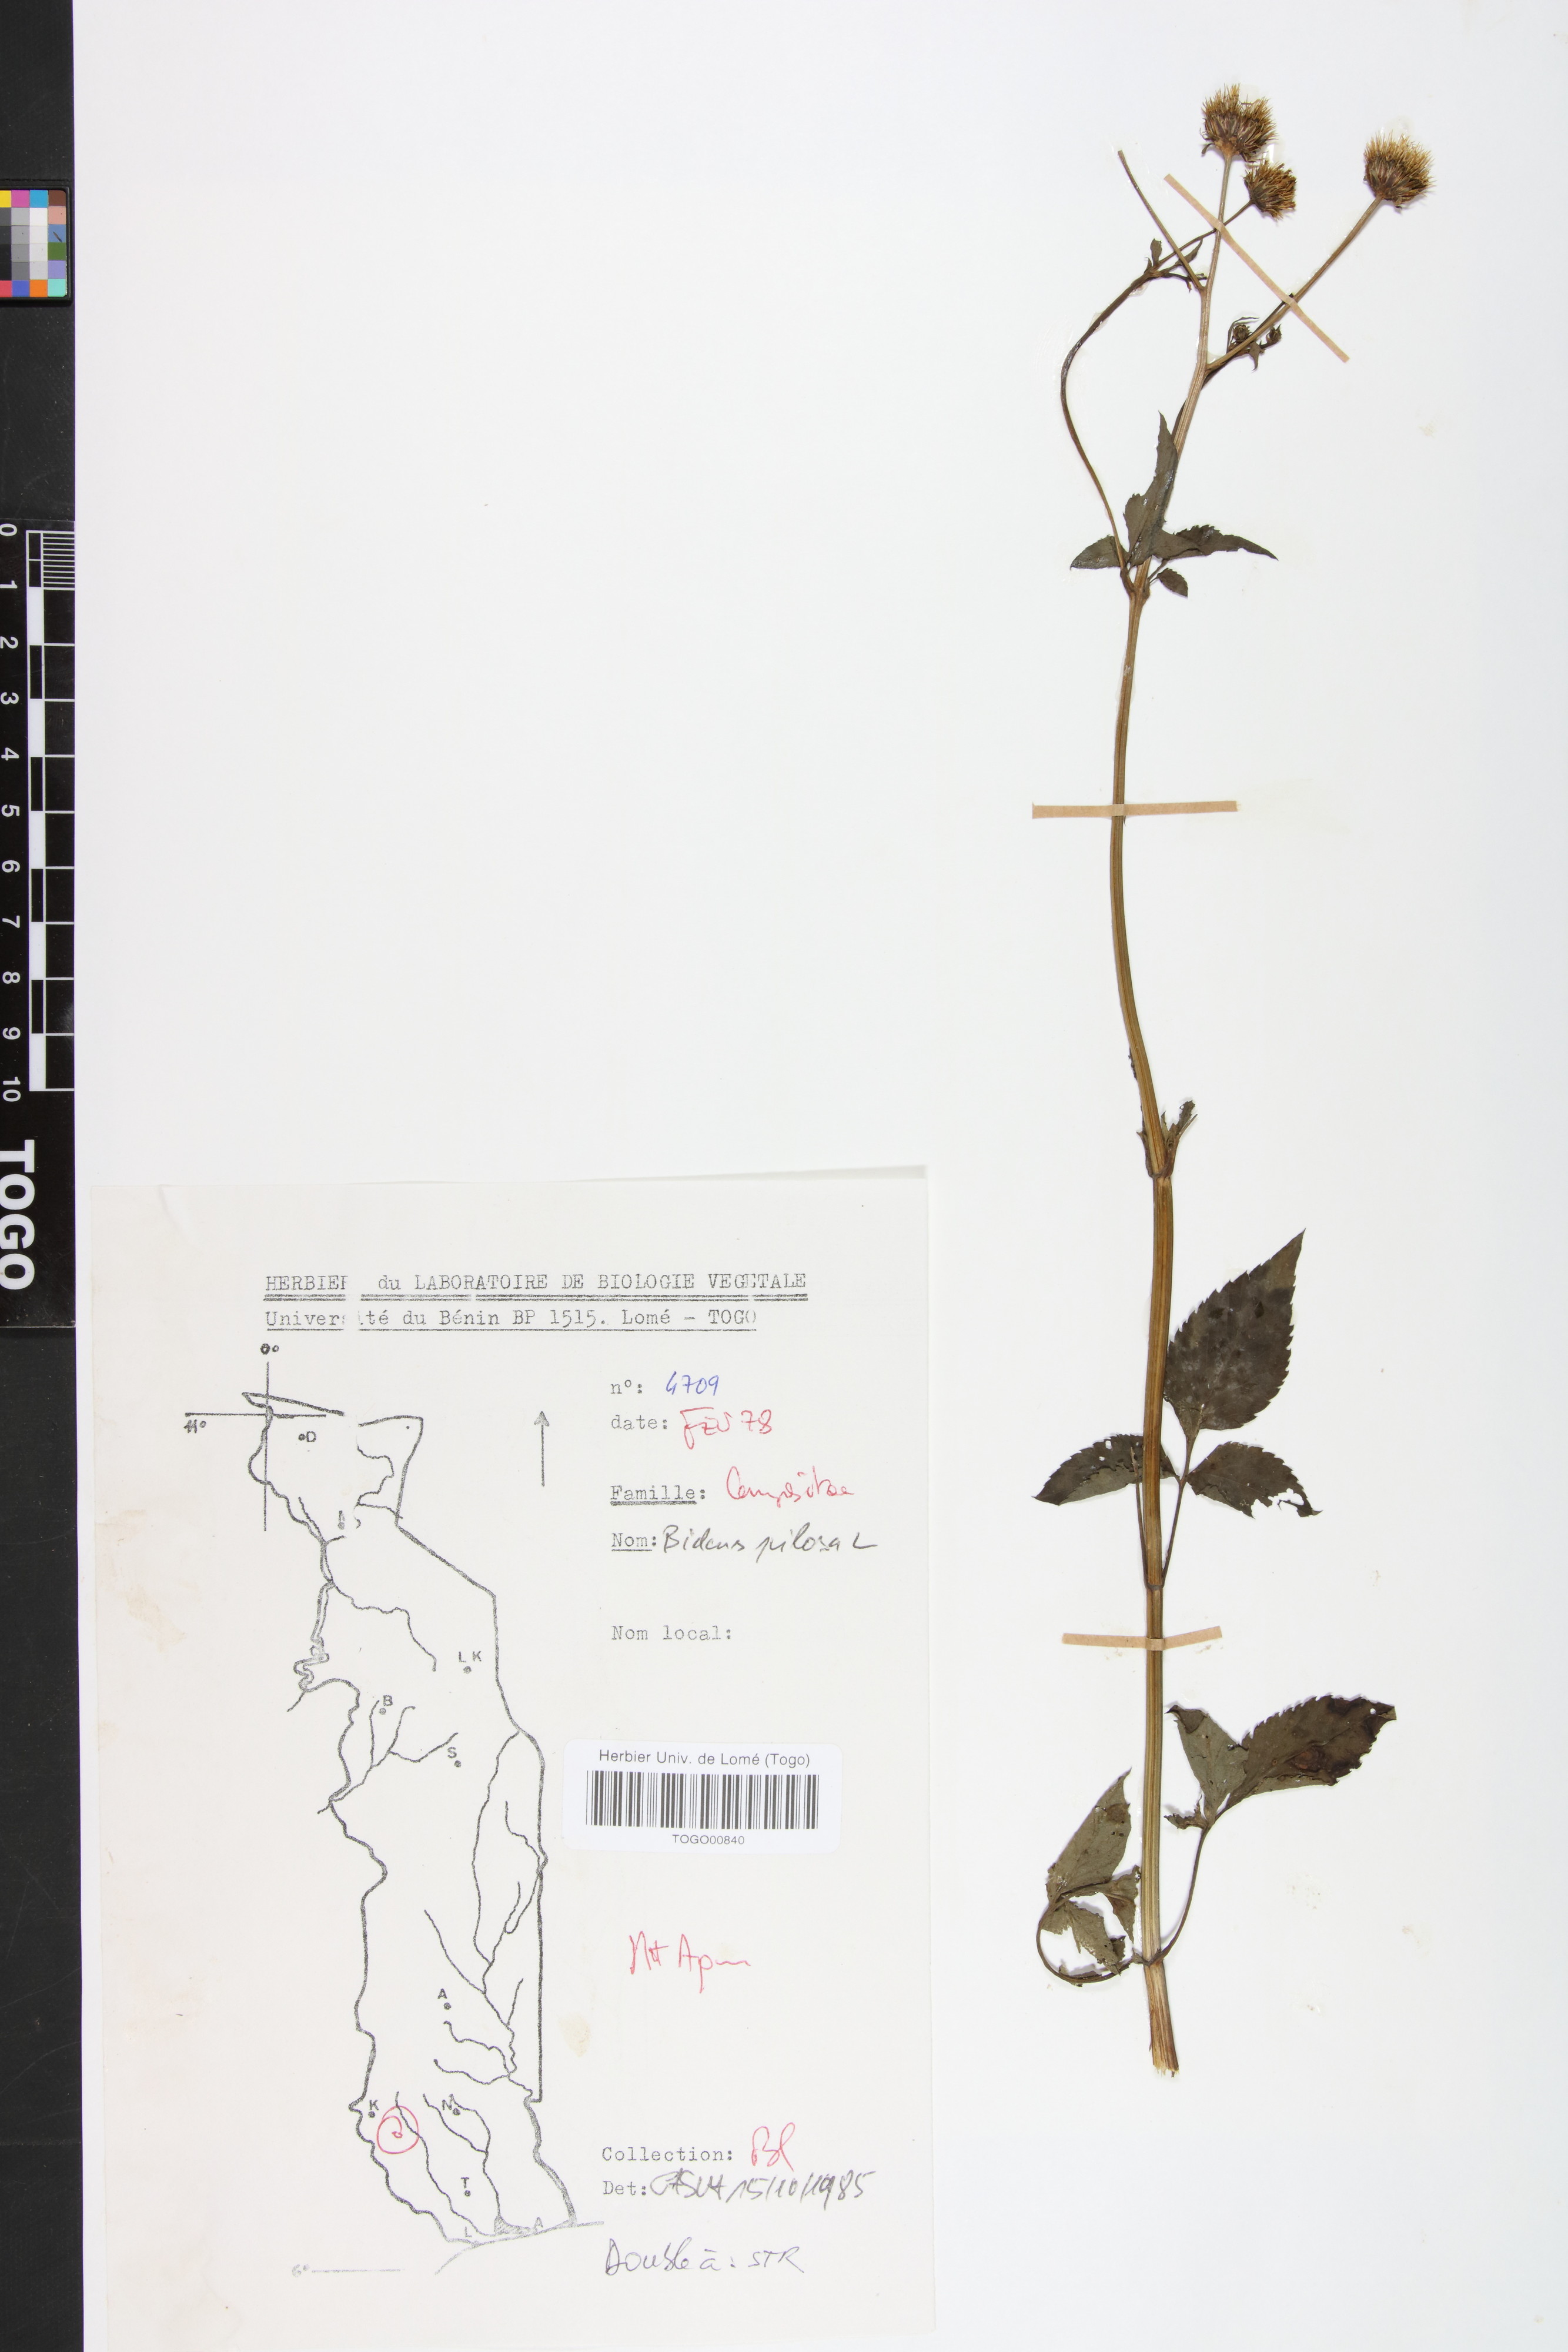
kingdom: Plantae
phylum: Tracheophyta
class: Magnoliopsida
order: Asterales
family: Asteraceae
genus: Bidens
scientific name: Bidens pilosa
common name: Black-jack
